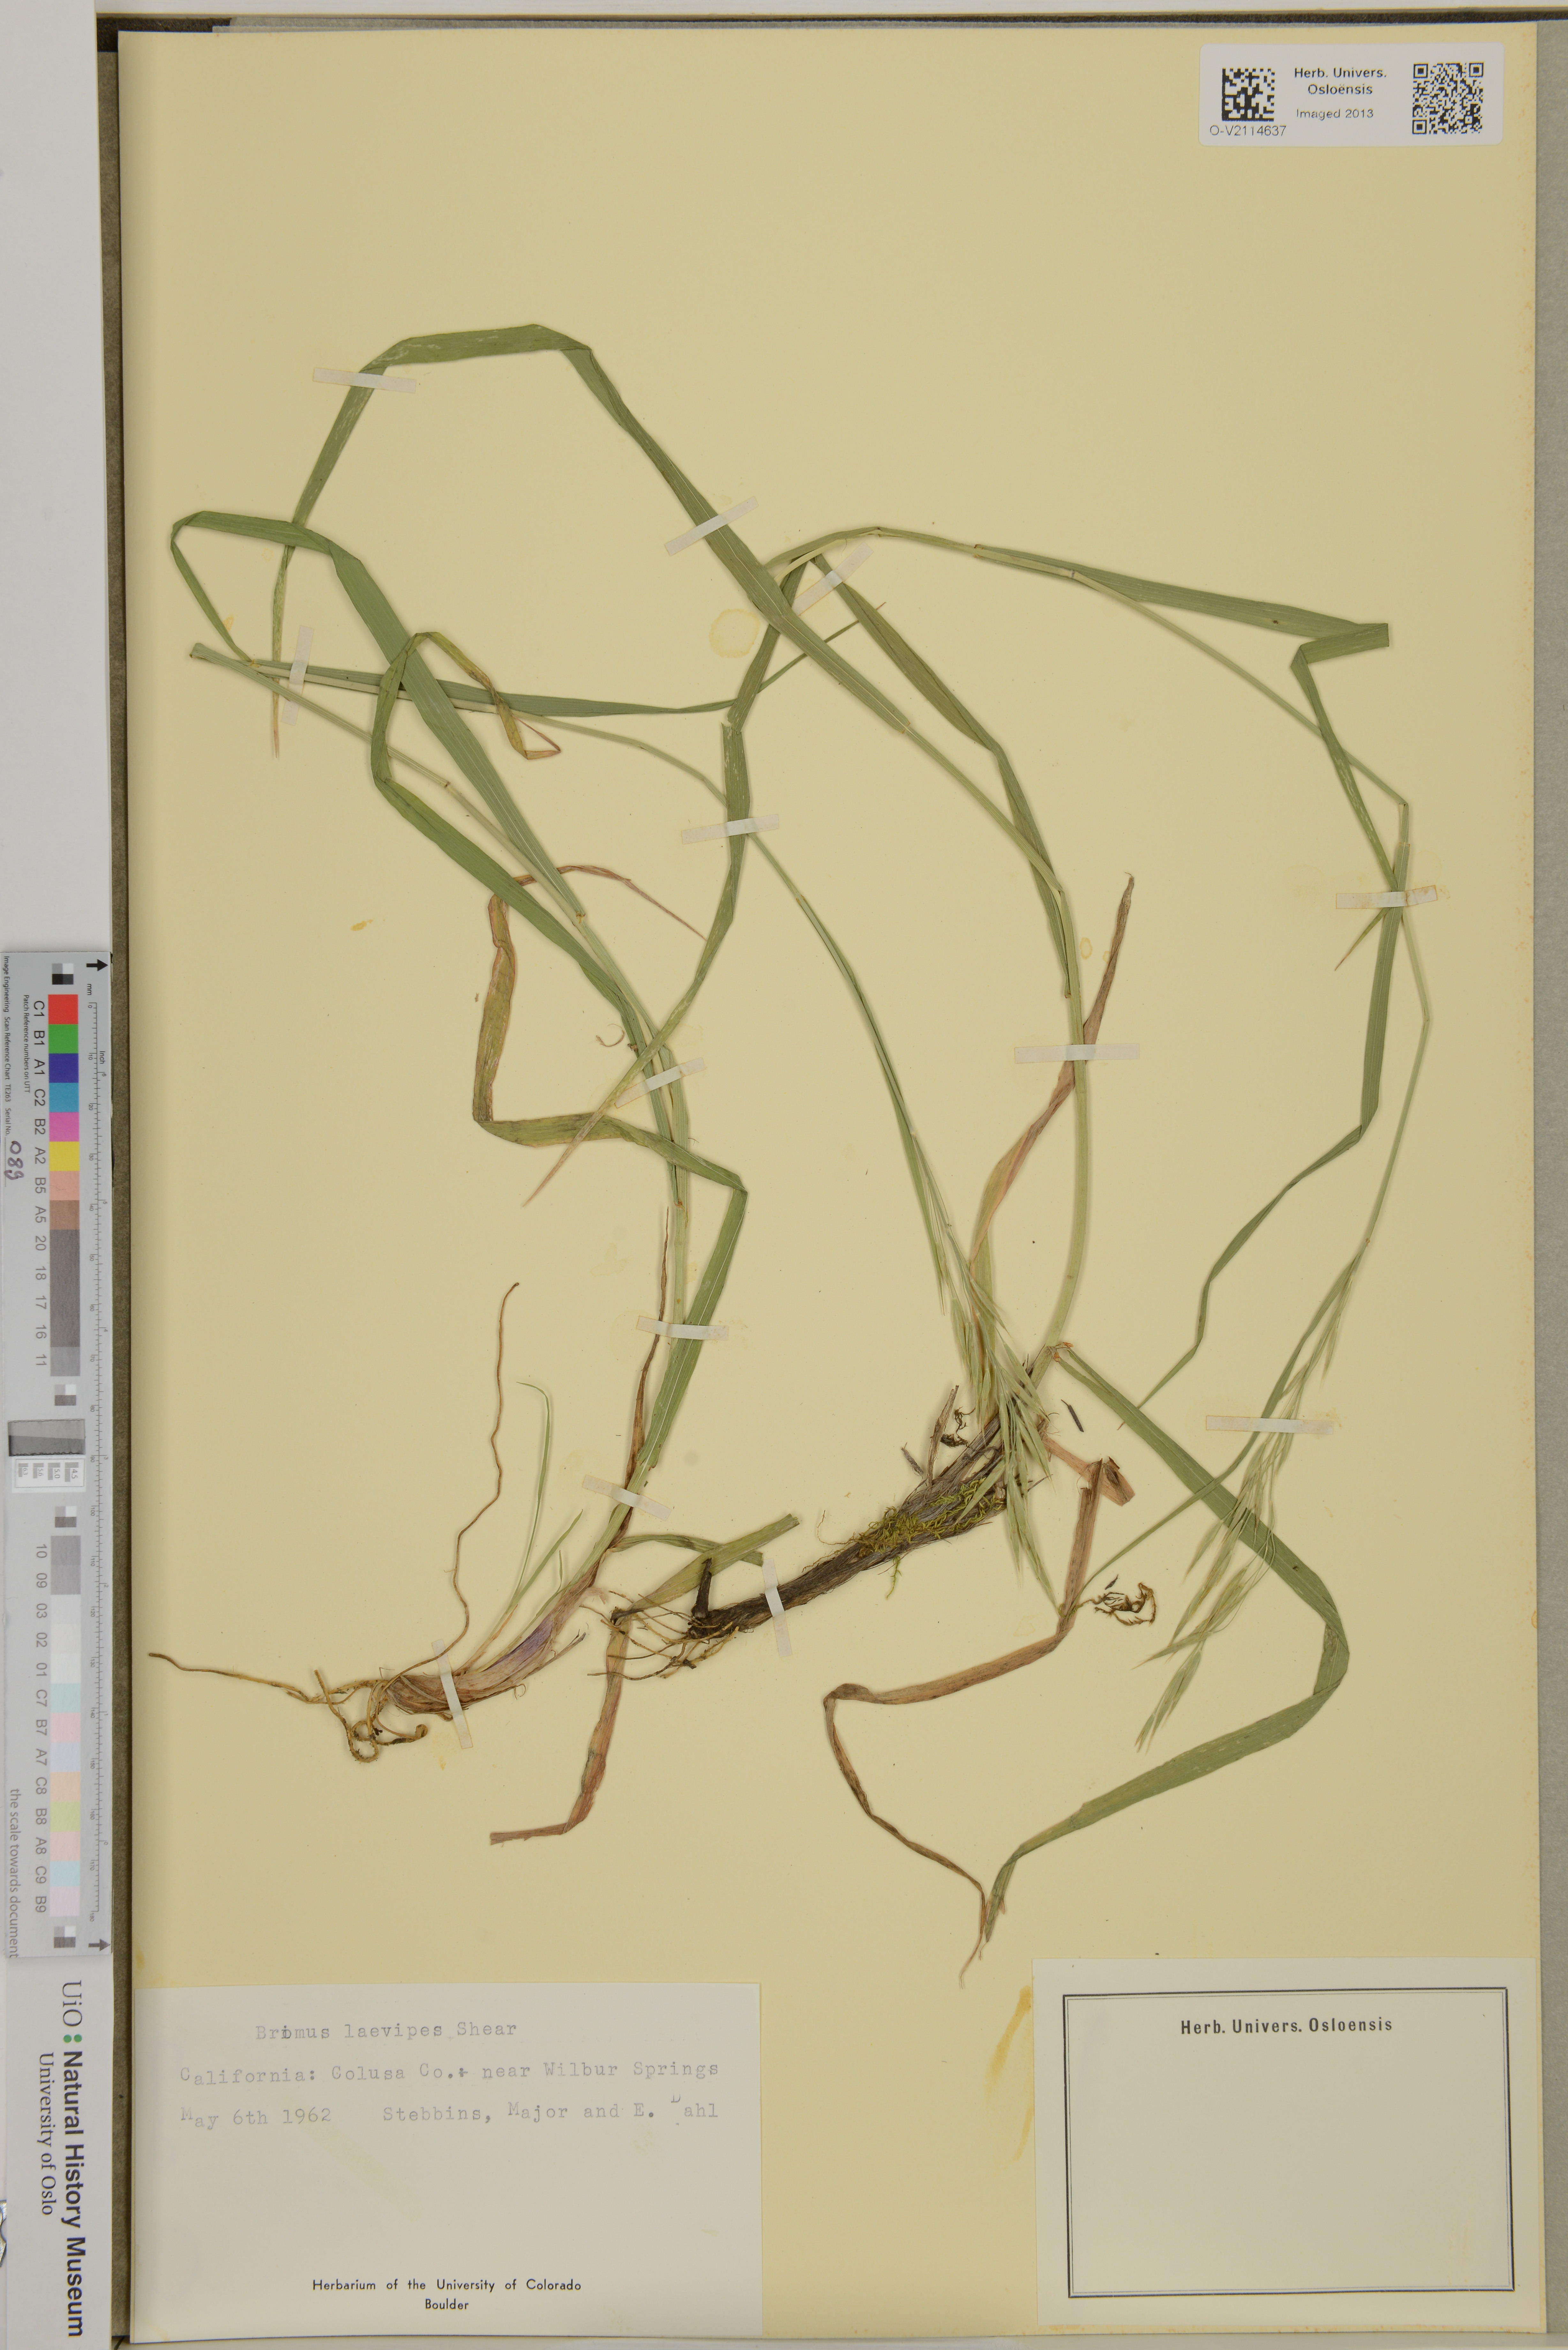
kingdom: Plantae
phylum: Tracheophyta
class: Liliopsida
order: Poales
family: Poaceae
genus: Bromus
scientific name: Bromus laevipes
